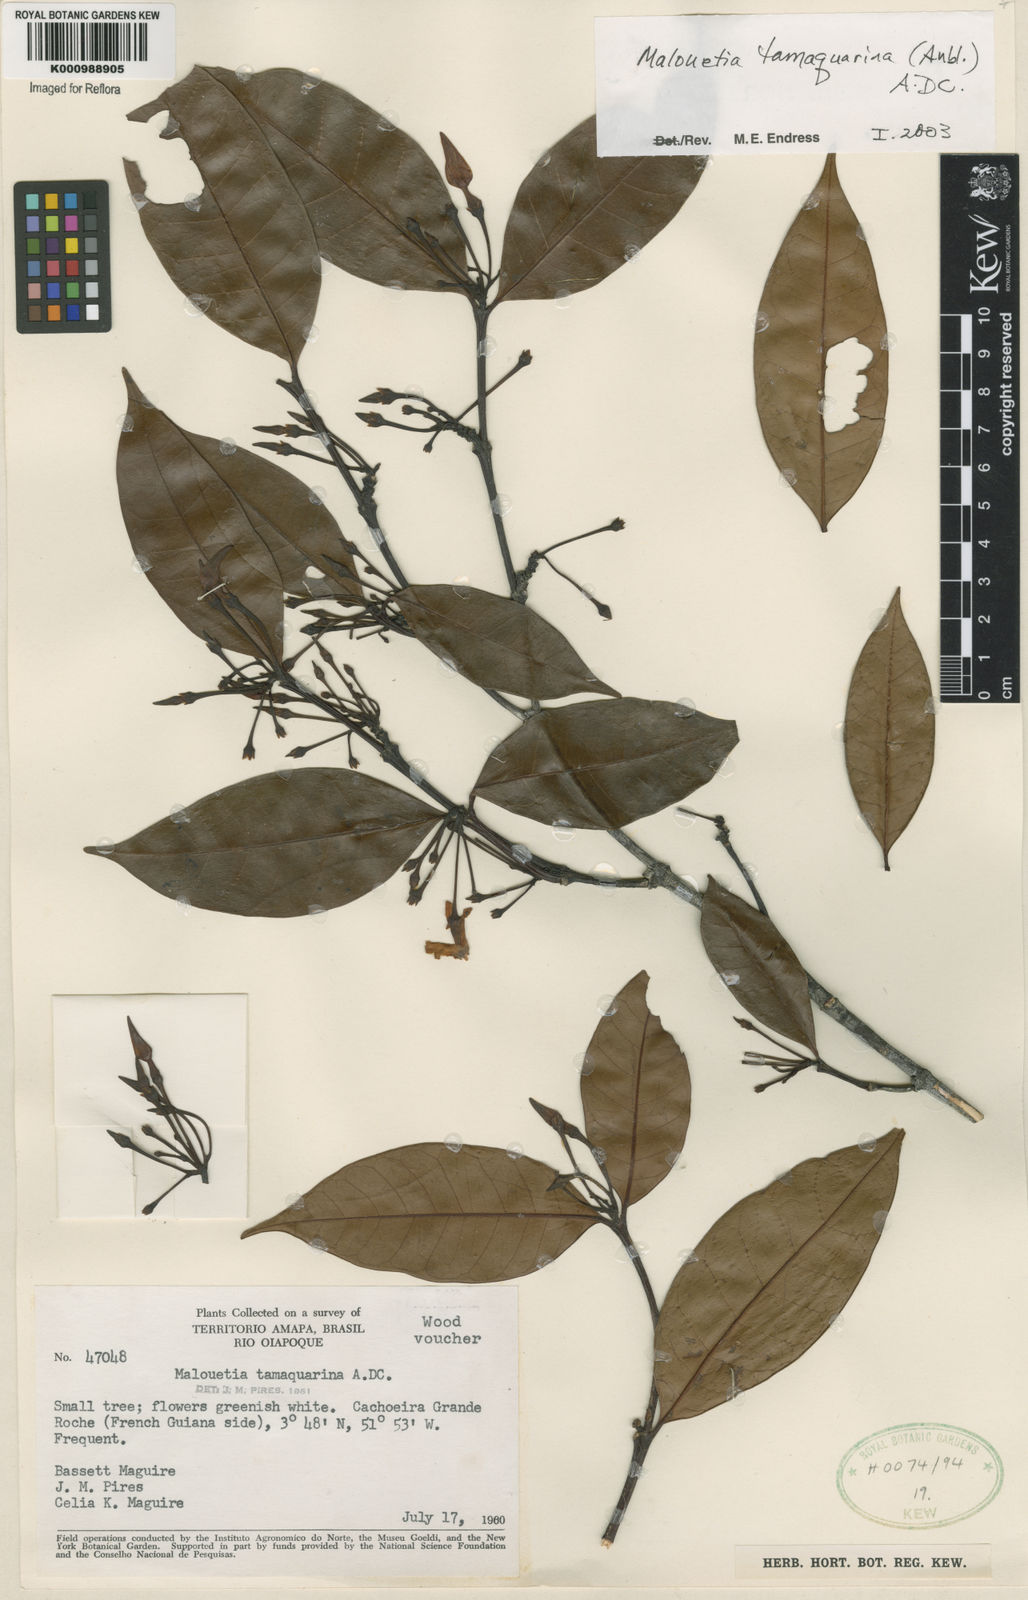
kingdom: Plantae
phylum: Tracheophyta
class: Magnoliopsida
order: Gentianales
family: Apocynaceae
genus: Malouetia
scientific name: Malouetia tamaquarina
